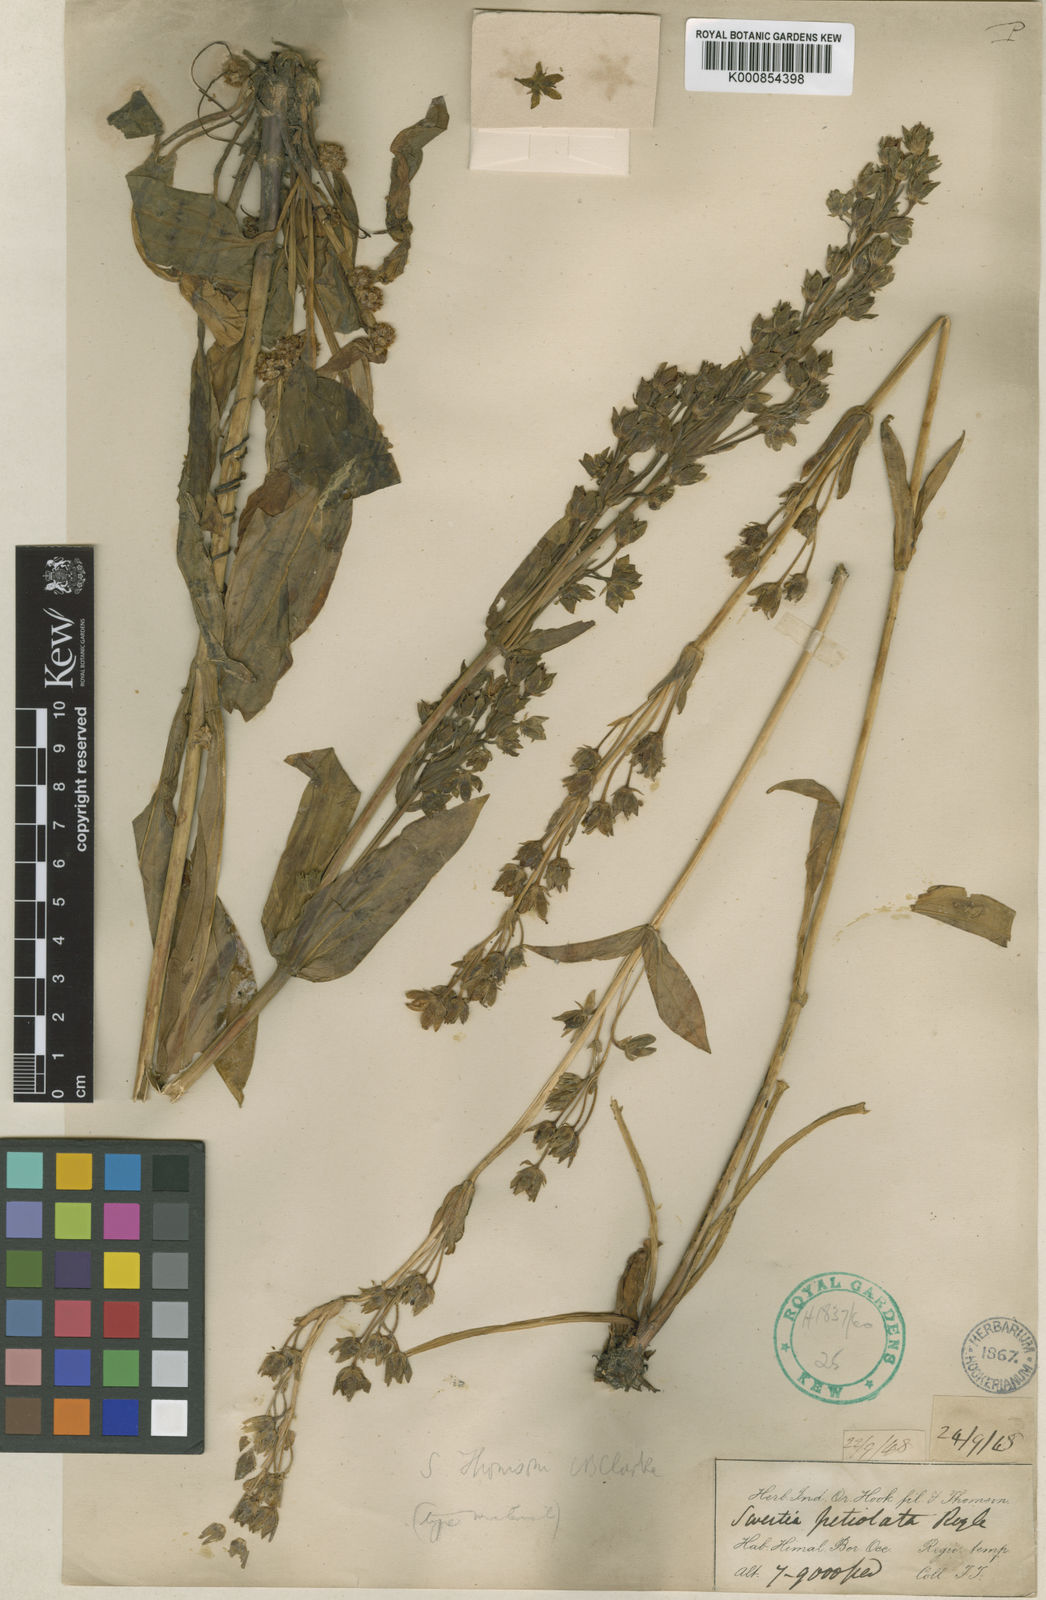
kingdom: Plantae
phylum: Tracheophyta
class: Magnoliopsida
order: Gentianales
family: Gentianaceae
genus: Swertia
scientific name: Swertia thomsonii
